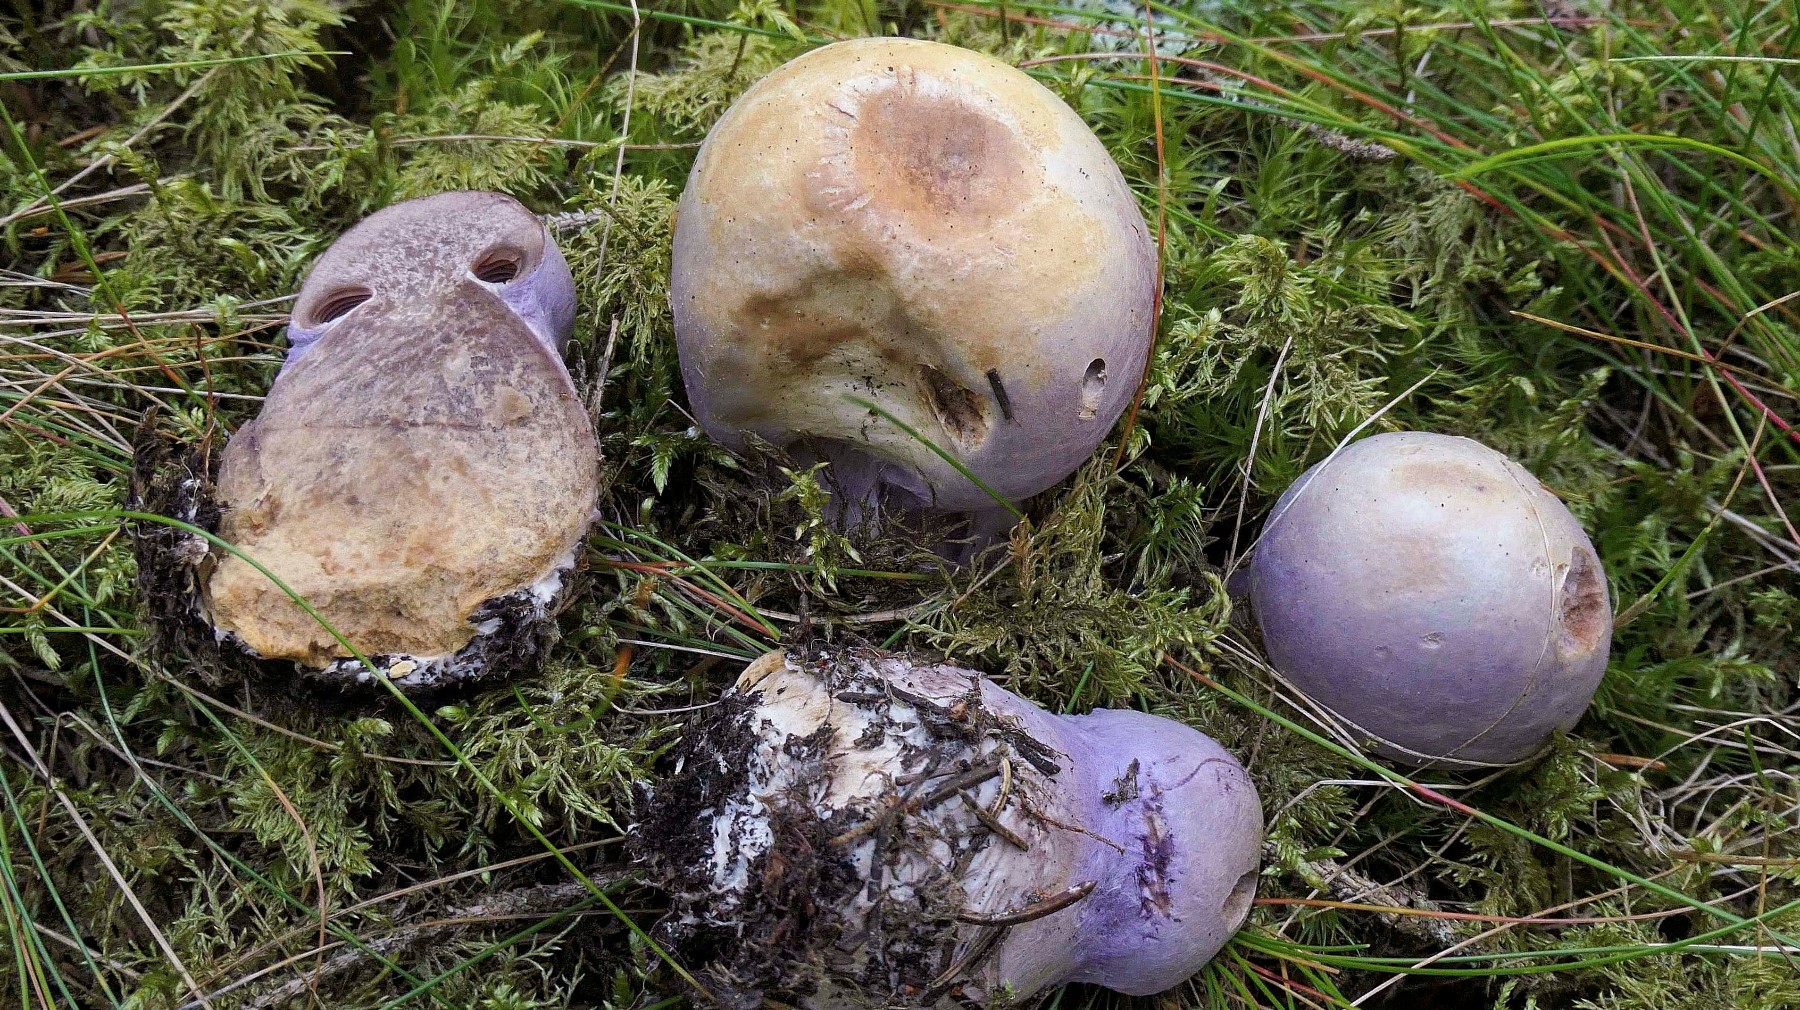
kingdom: Fungi
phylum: Basidiomycota
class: Agaricomycetes
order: Agaricales
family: Cortinariaceae
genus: Cortinarius
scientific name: Cortinarius traganus
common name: safrankødet slørhat
